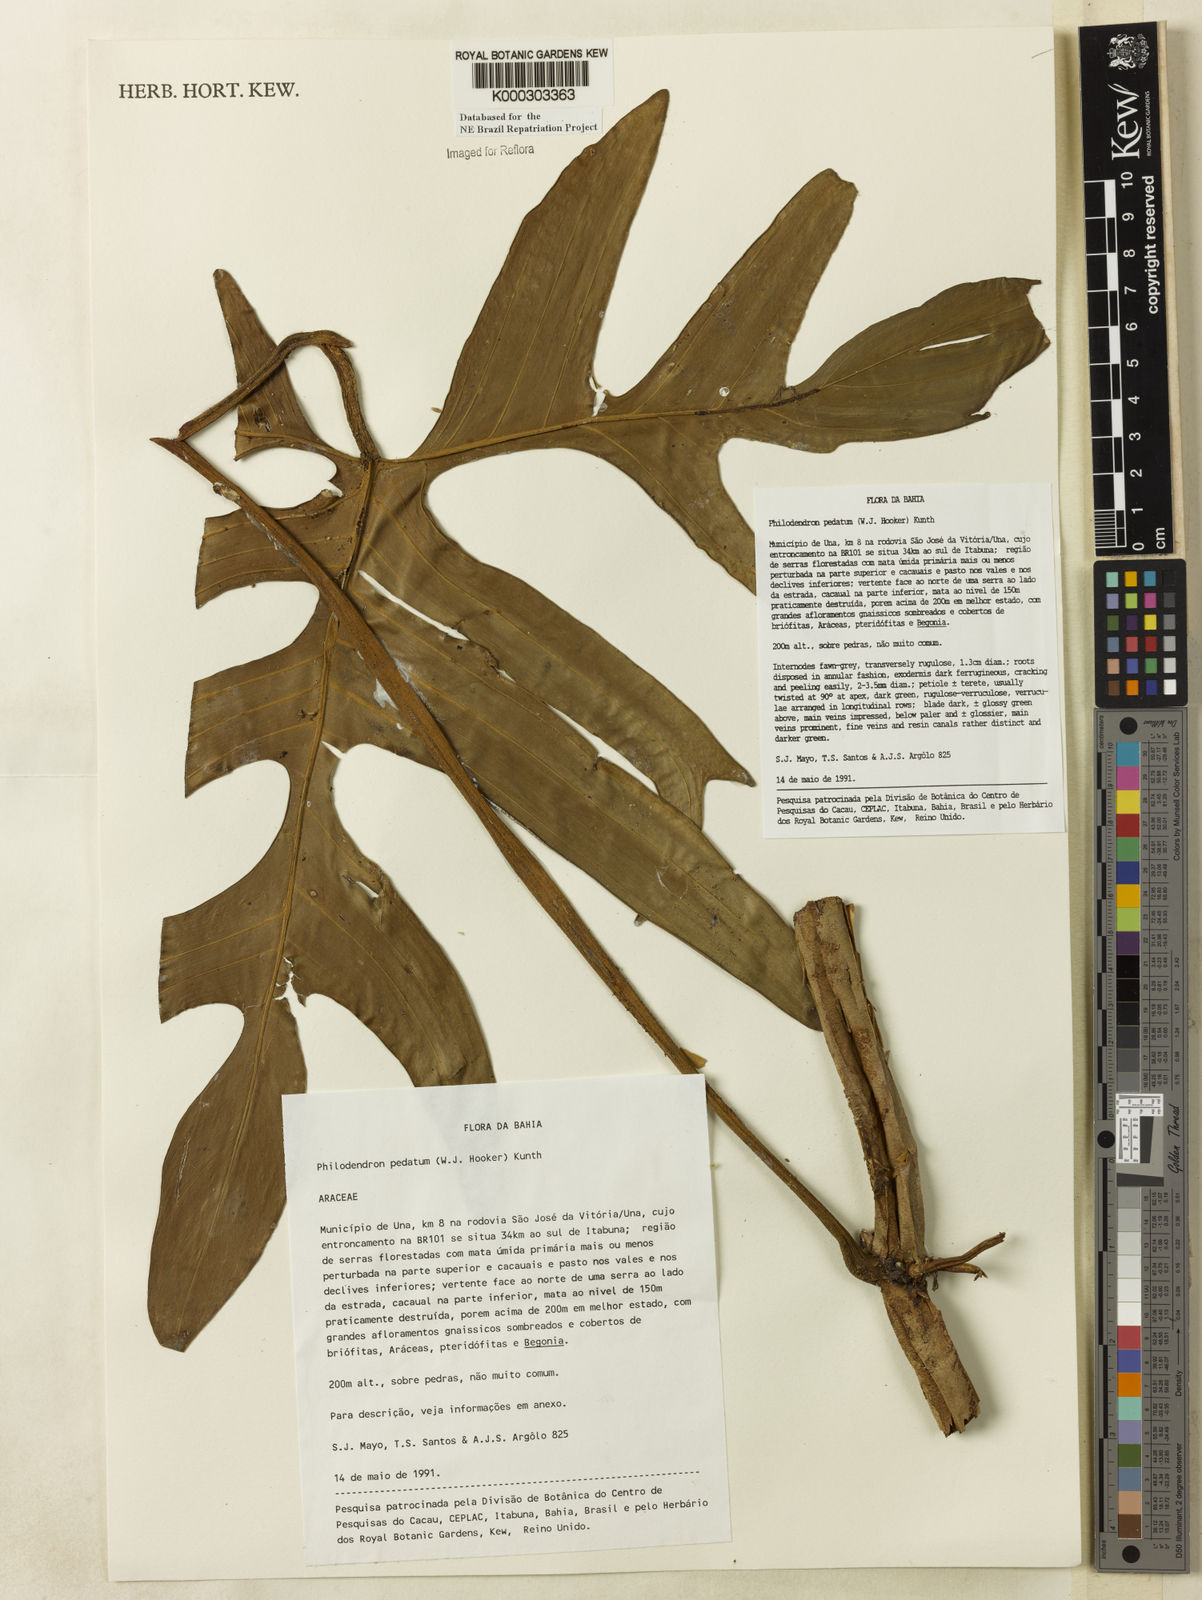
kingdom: Plantae
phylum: Tracheophyta
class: Liliopsida
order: Alismatales
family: Araceae
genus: Philodendron
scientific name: Philodendron pedatum
